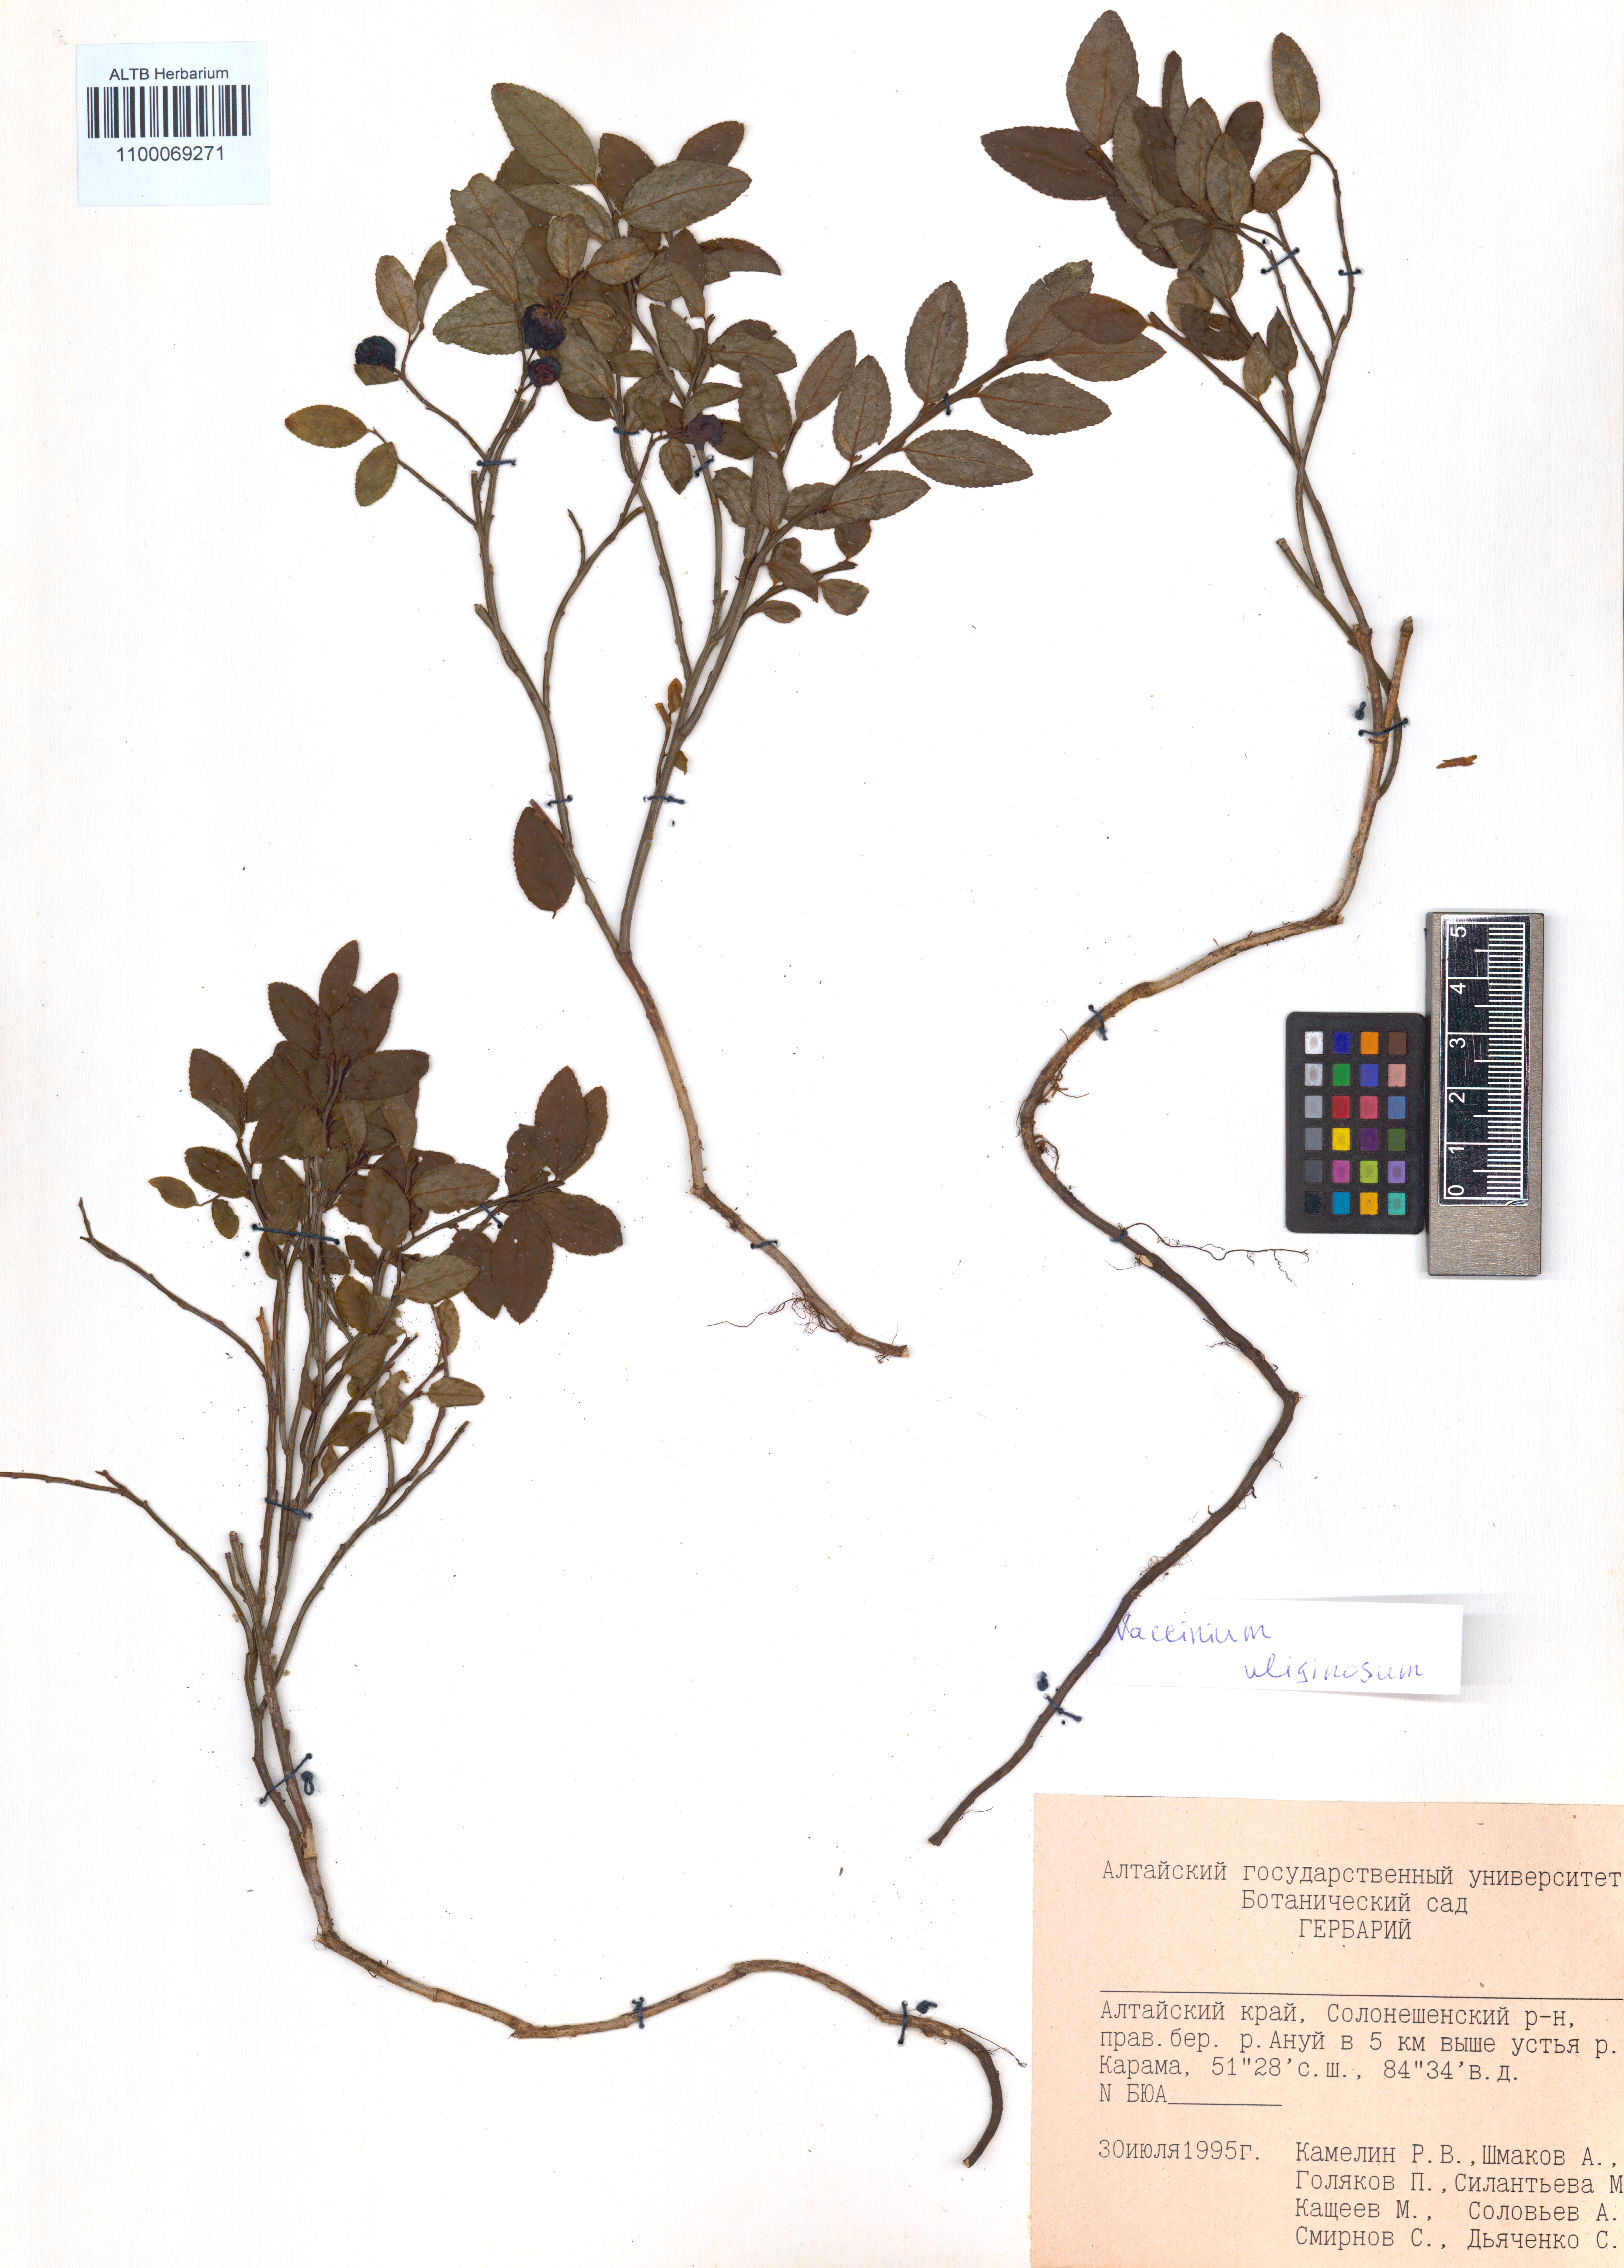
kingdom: Plantae
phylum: Tracheophyta
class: Magnoliopsida
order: Ericales
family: Ericaceae
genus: Vaccinium
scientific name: Vaccinium uliginosum
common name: Bog bilberry
